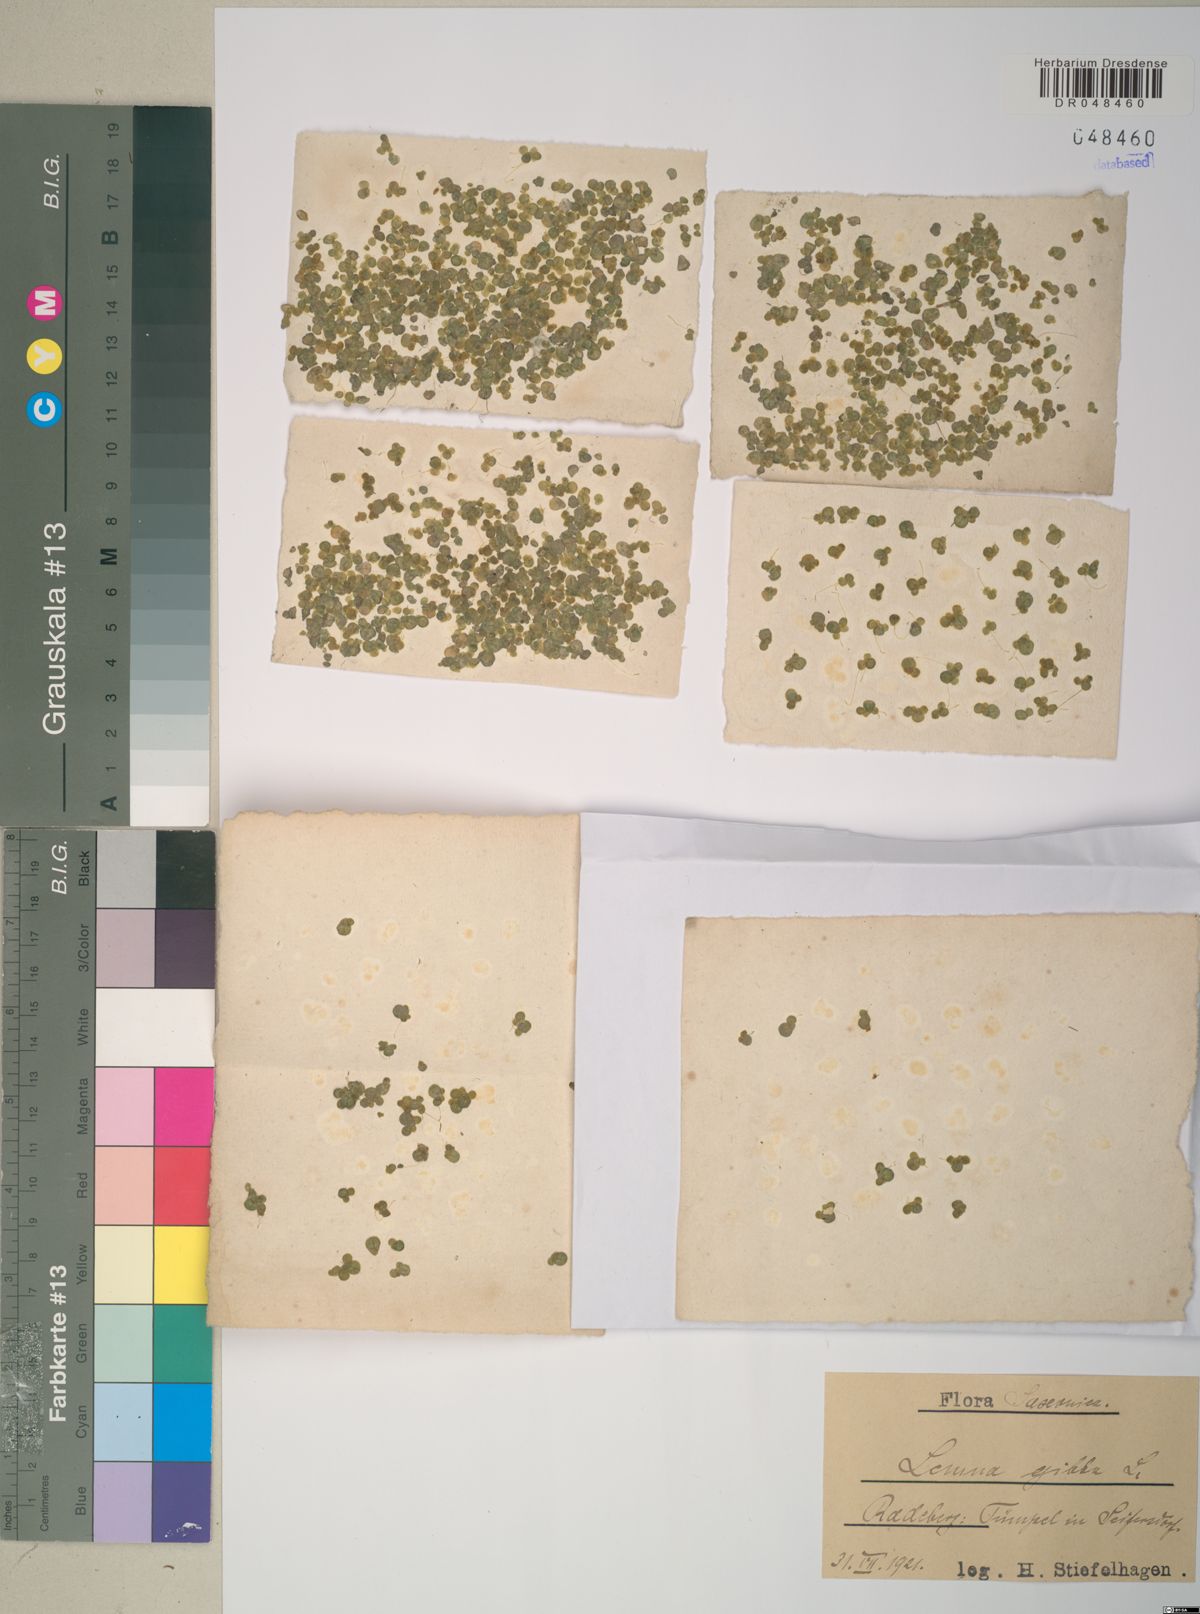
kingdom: Plantae
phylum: Tracheophyta
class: Liliopsida
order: Alismatales
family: Araceae
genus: Lemna
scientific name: Lemna gibba
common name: Fat duckweed
